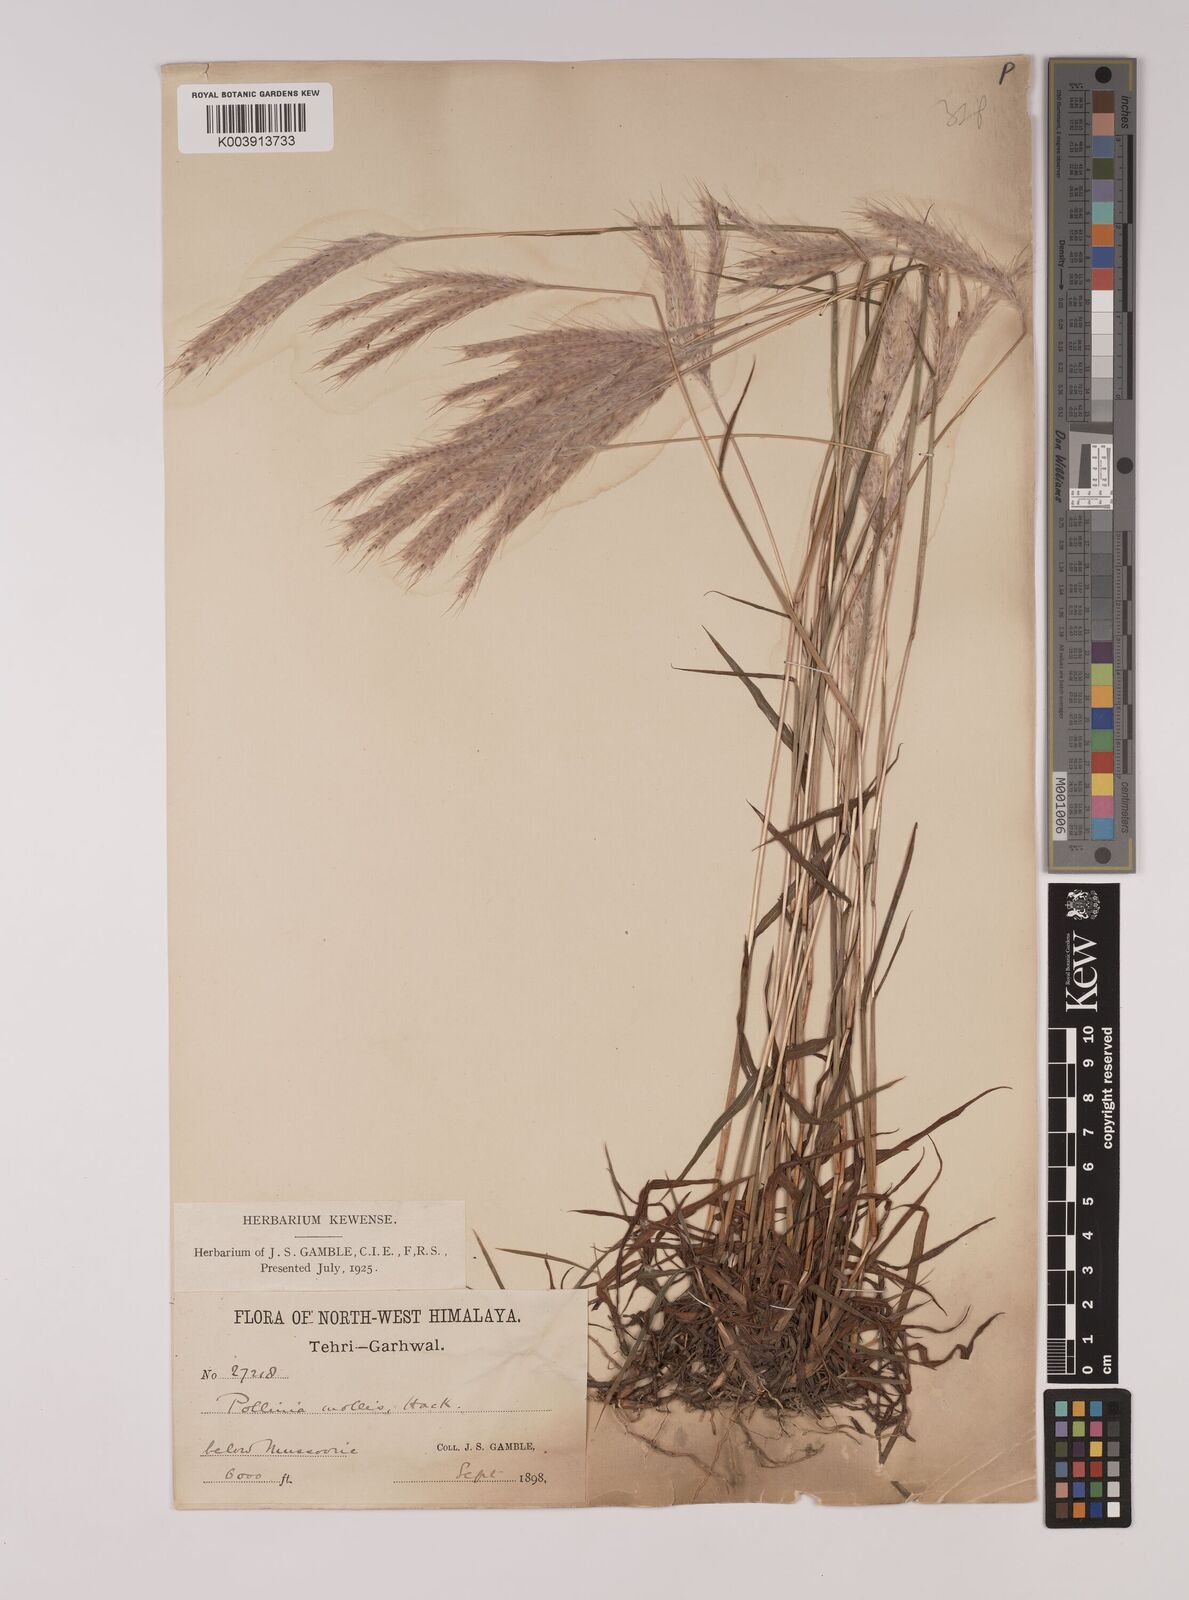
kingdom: Plantae
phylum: Tracheophyta
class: Liliopsida
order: Poales
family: Poaceae
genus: Eulalia
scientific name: Eulalia mollis
